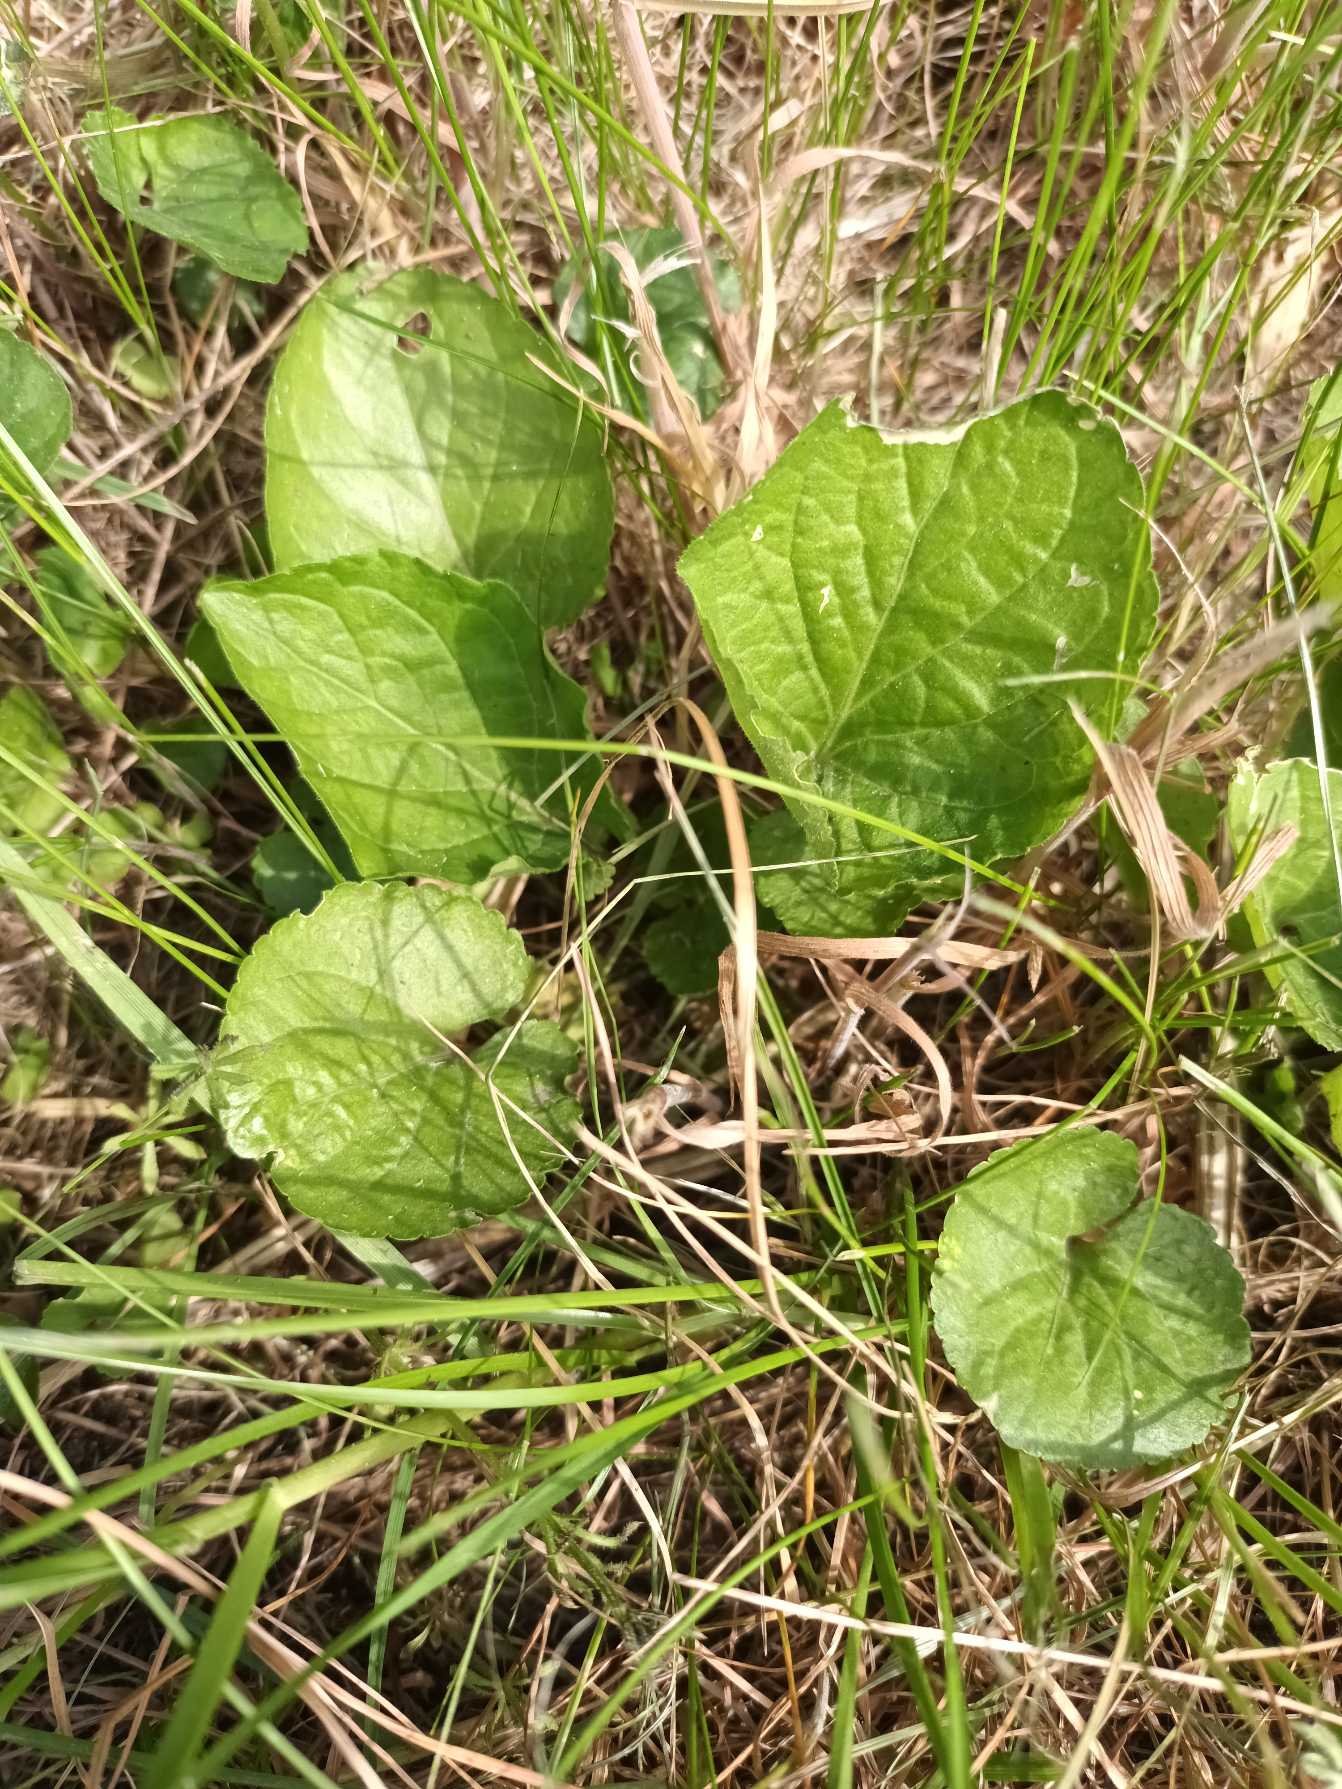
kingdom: Plantae
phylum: Tracheophyta
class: Magnoliopsida
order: Malpighiales
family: Violaceae
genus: Viola
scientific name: Viola odorata
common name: Marts-viol
